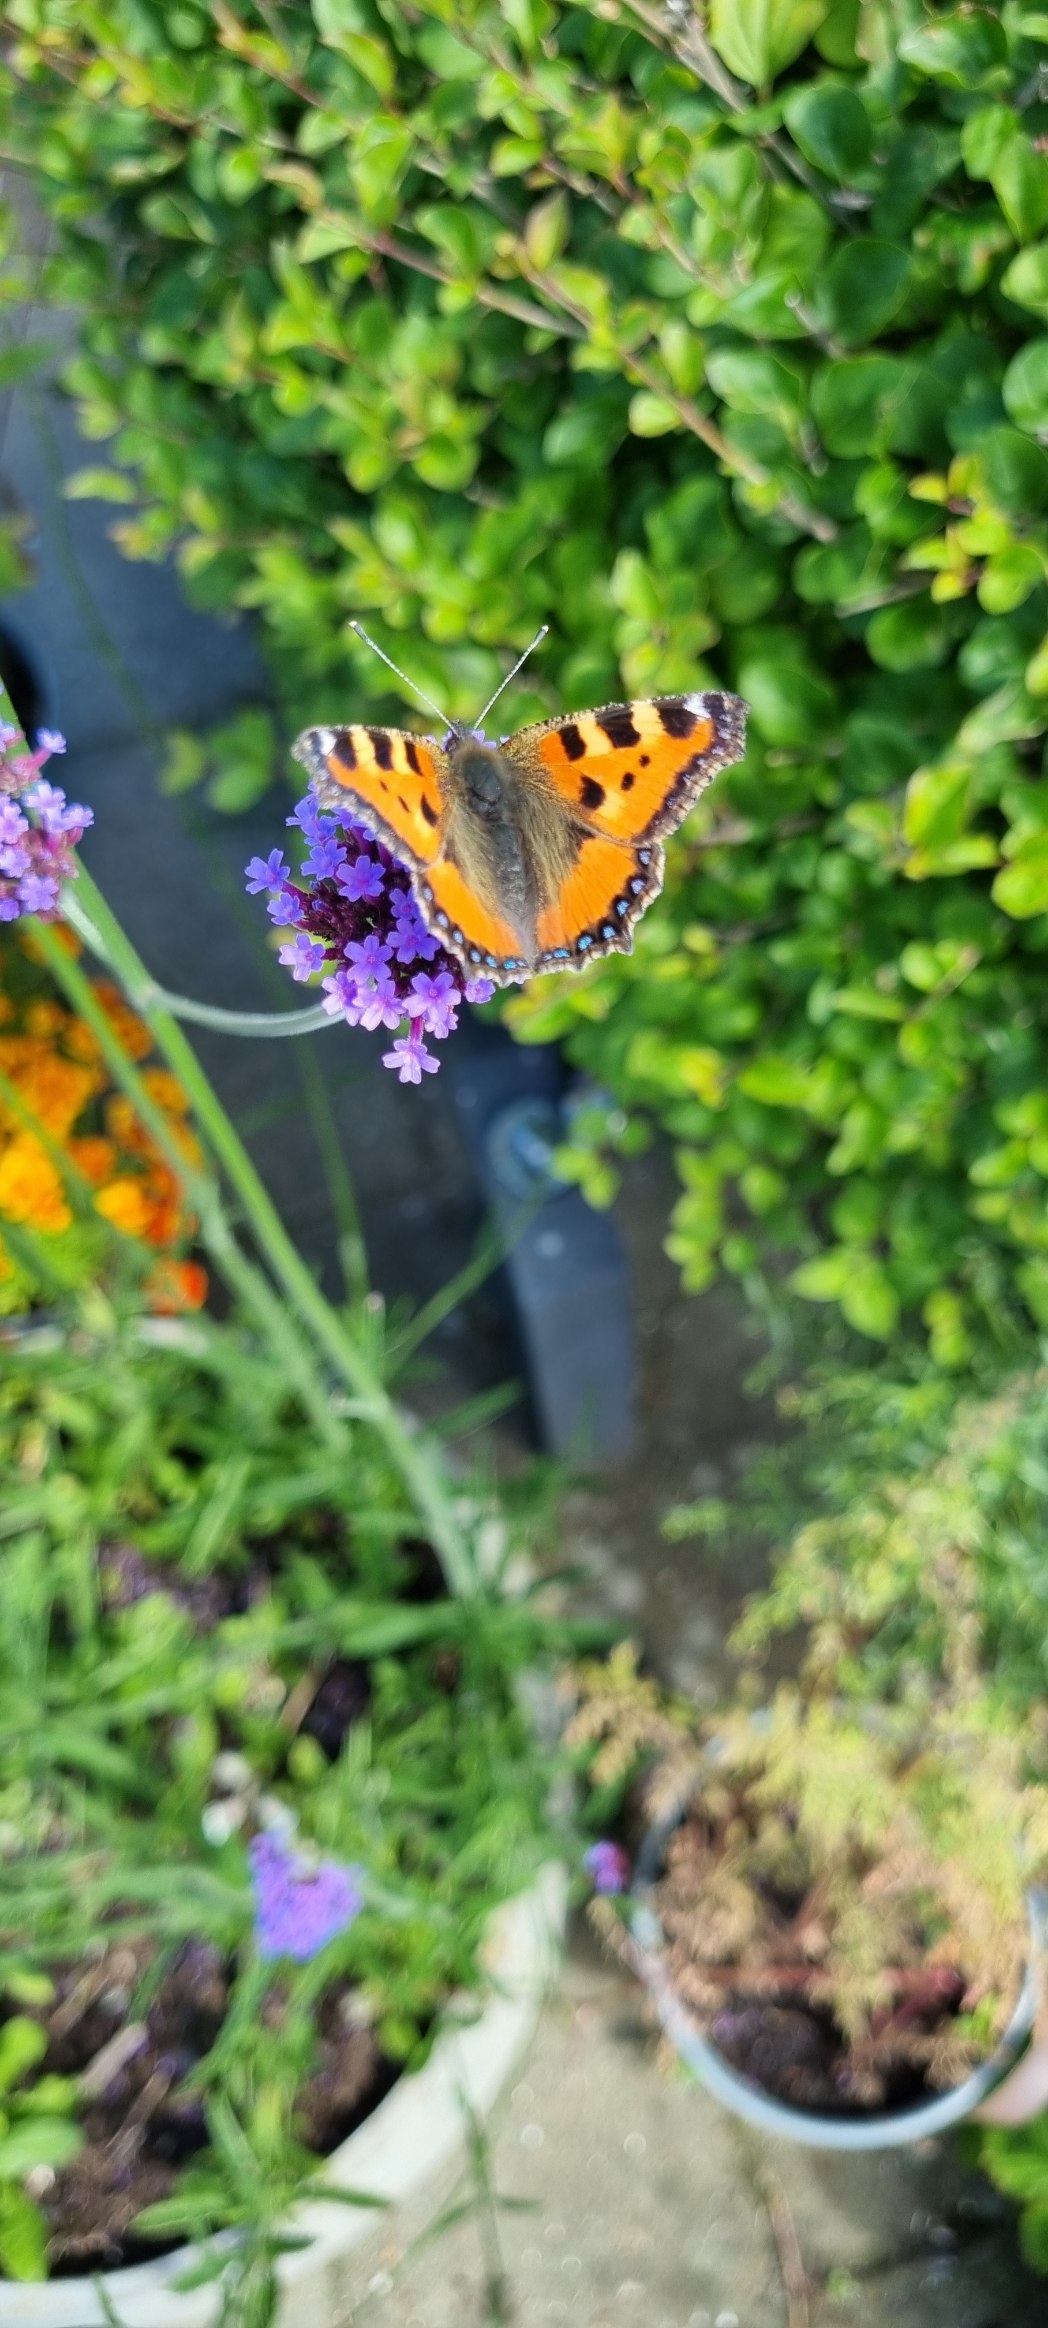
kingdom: Animalia
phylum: Arthropoda
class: Insecta
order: Lepidoptera
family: Nymphalidae
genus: Aglais
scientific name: Aglais urticae
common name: Nældens takvinge
